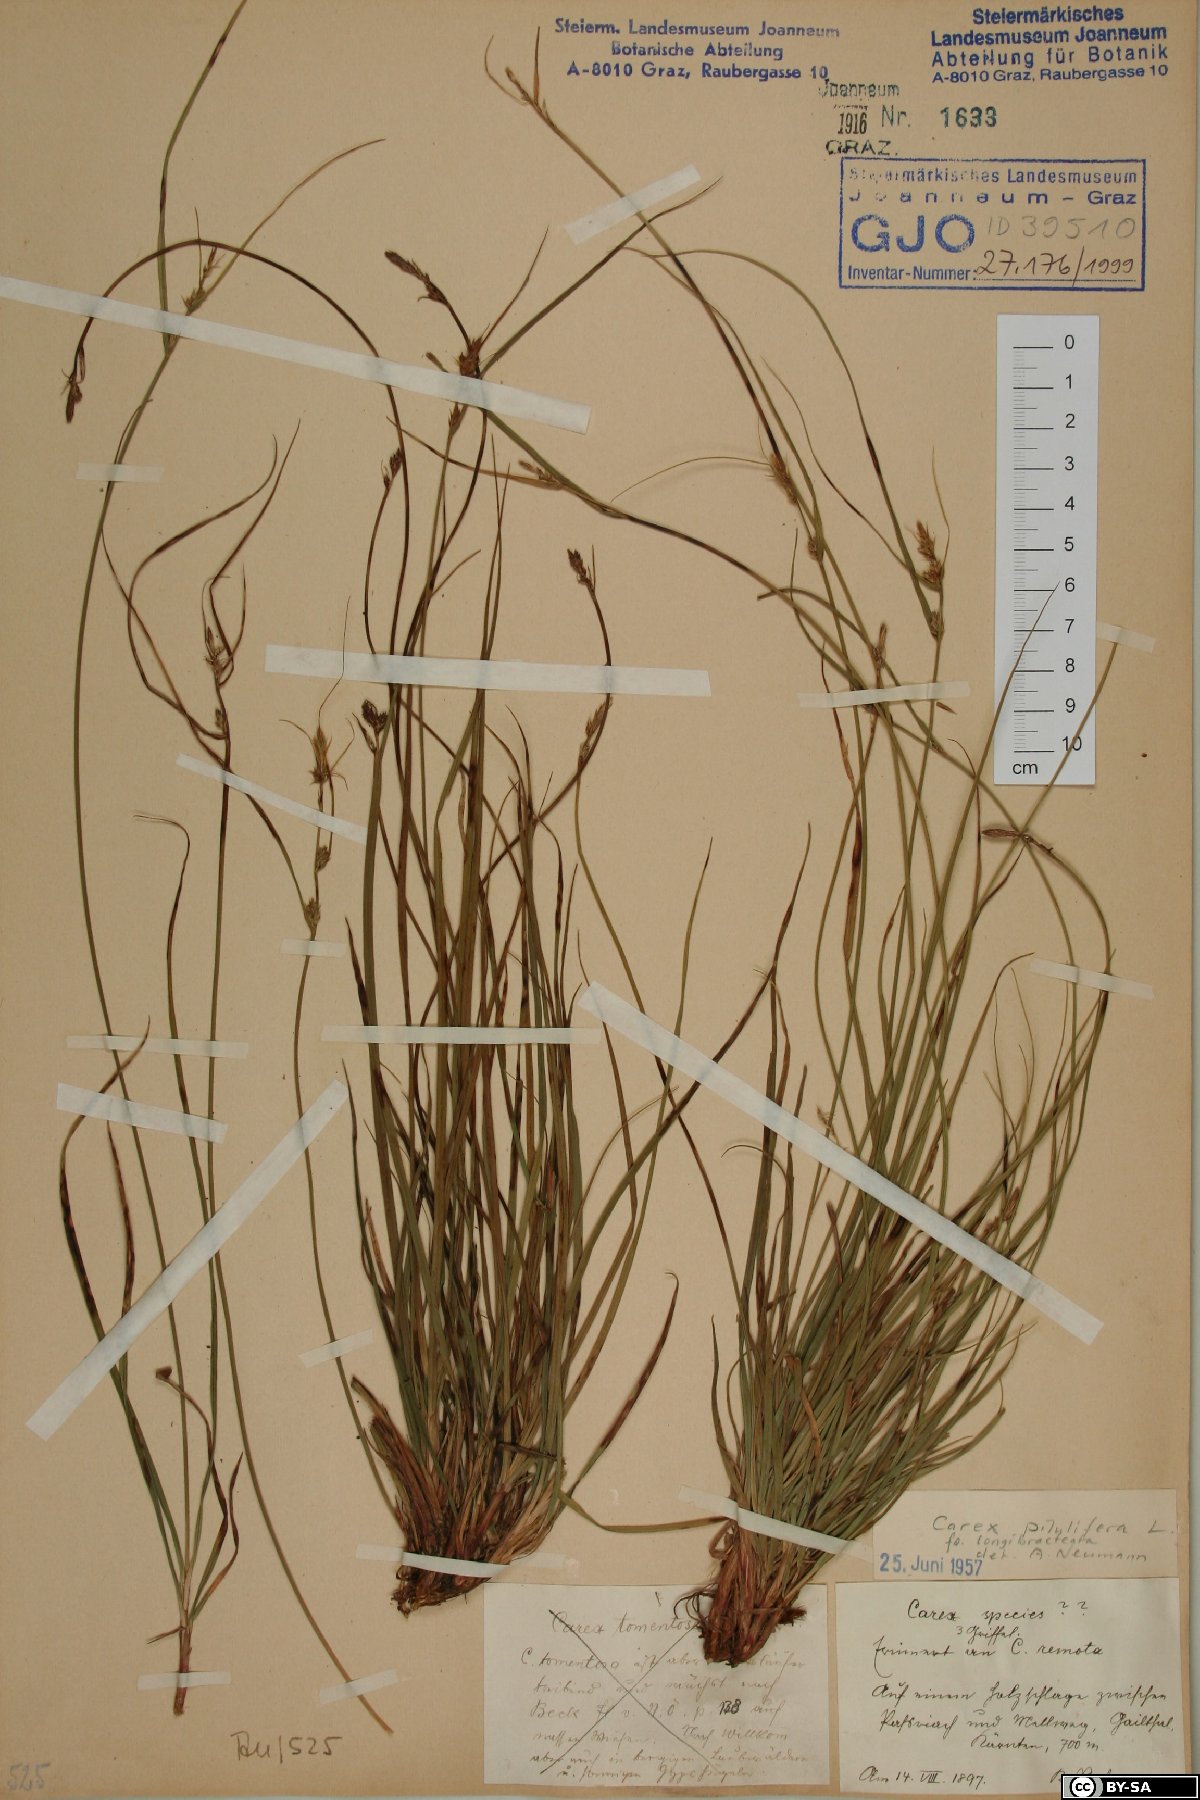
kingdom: Plantae
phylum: Tracheophyta
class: Liliopsida
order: Poales
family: Cyperaceae
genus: Carex
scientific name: Carex pilulifera
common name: Pill sedge
